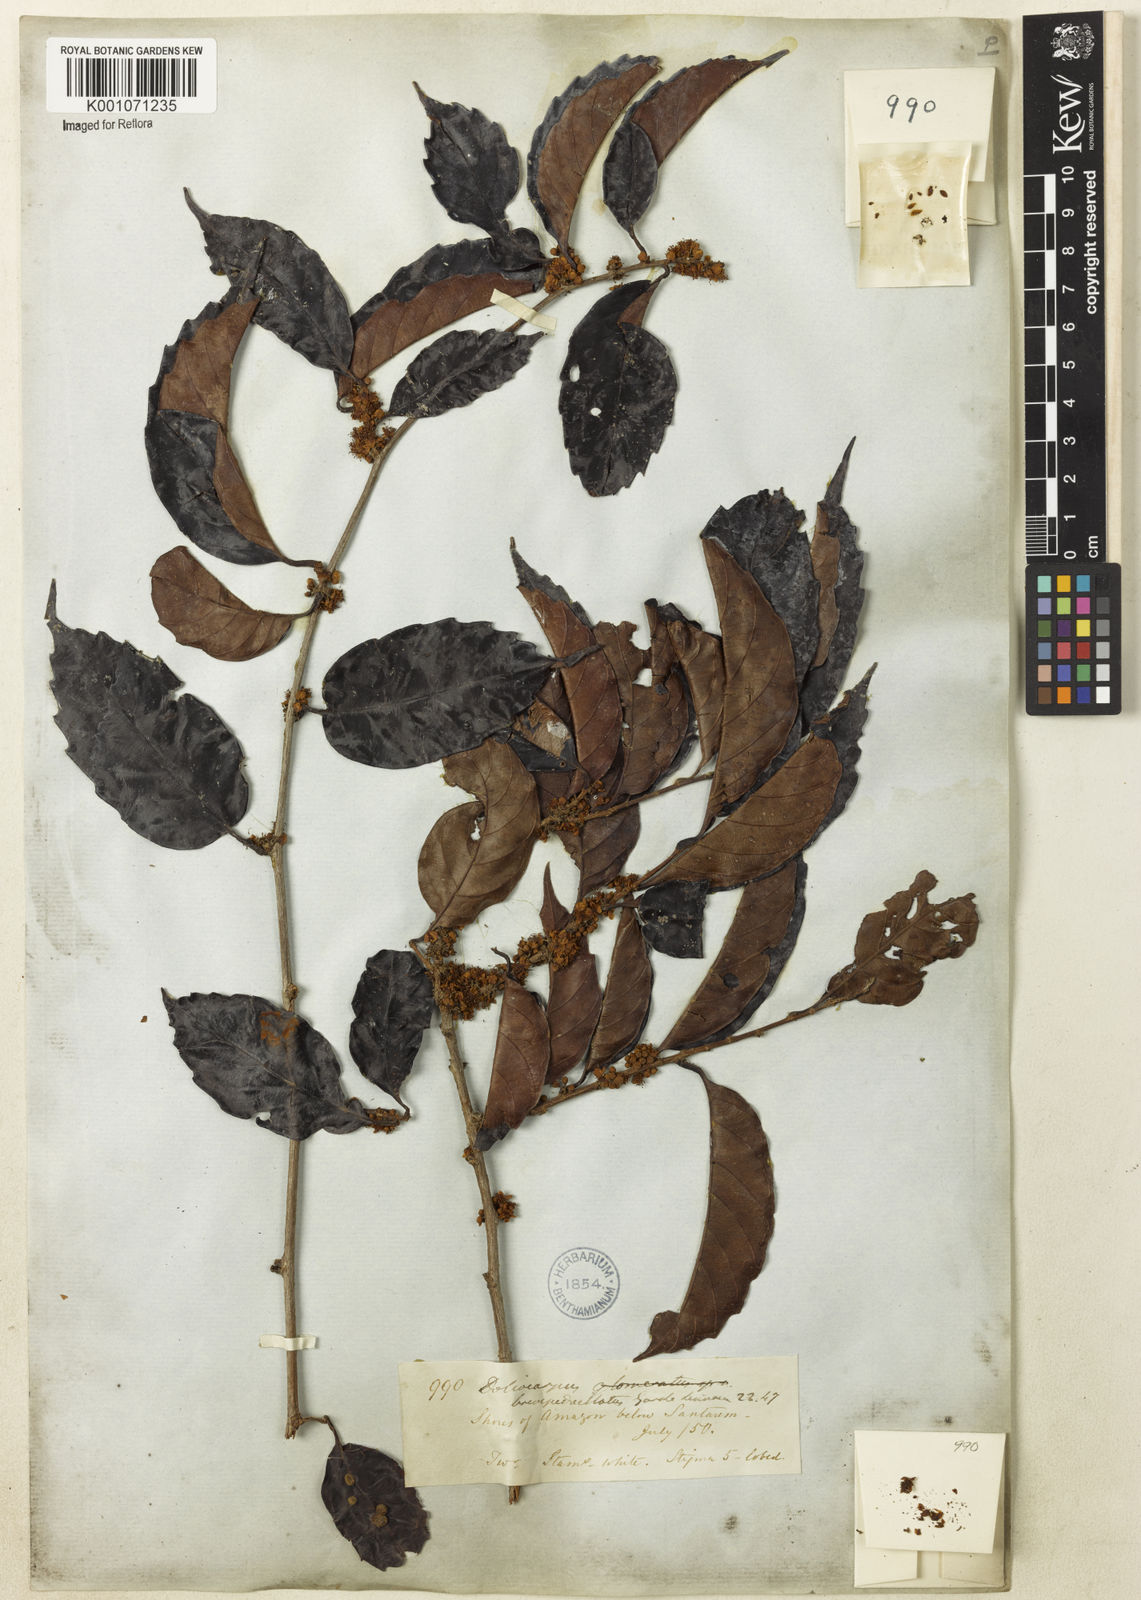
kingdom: Plantae
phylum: Tracheophyta
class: Magnoliopsida
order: Dilleniales
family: Dilleniaceae
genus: Doliocarpus
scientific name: Doliocarpus brevipedicellatus
